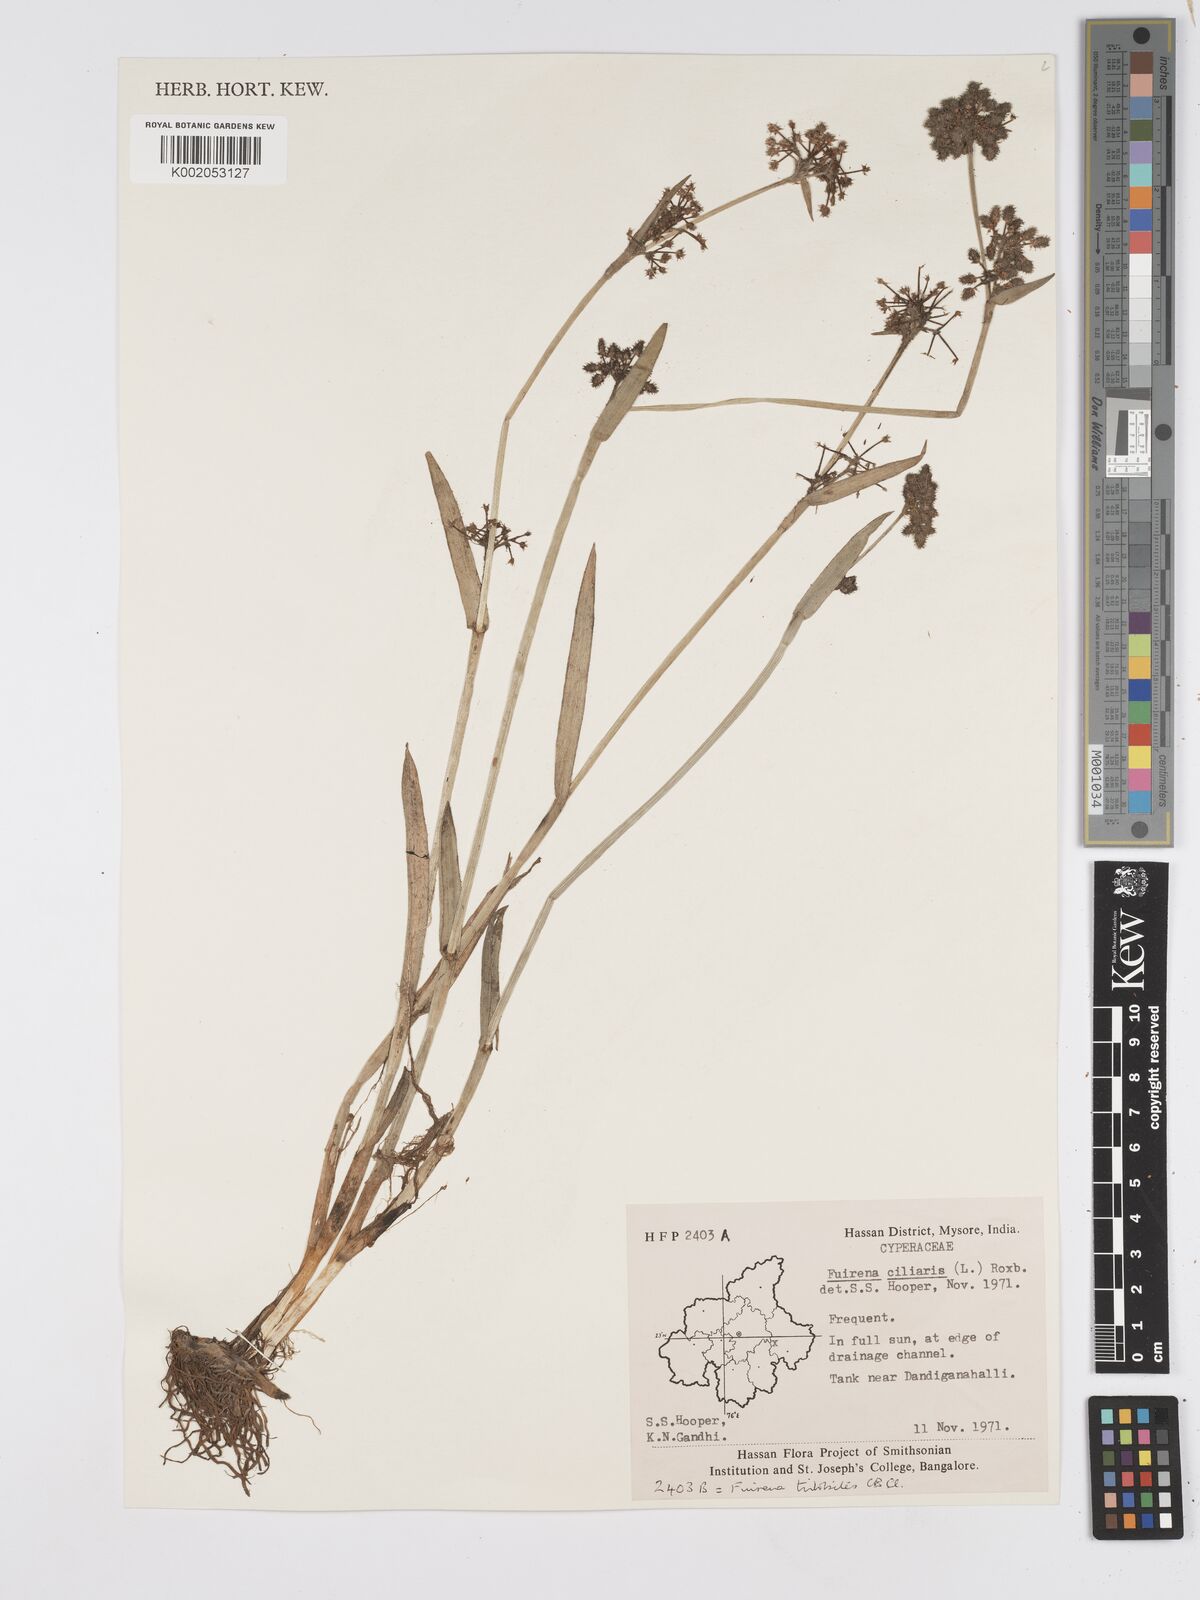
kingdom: Plantae
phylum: Tracheophyta
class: Liliopsida
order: Poales
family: Cyperaceae
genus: Fuirena
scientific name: Fuirena ciliaris
